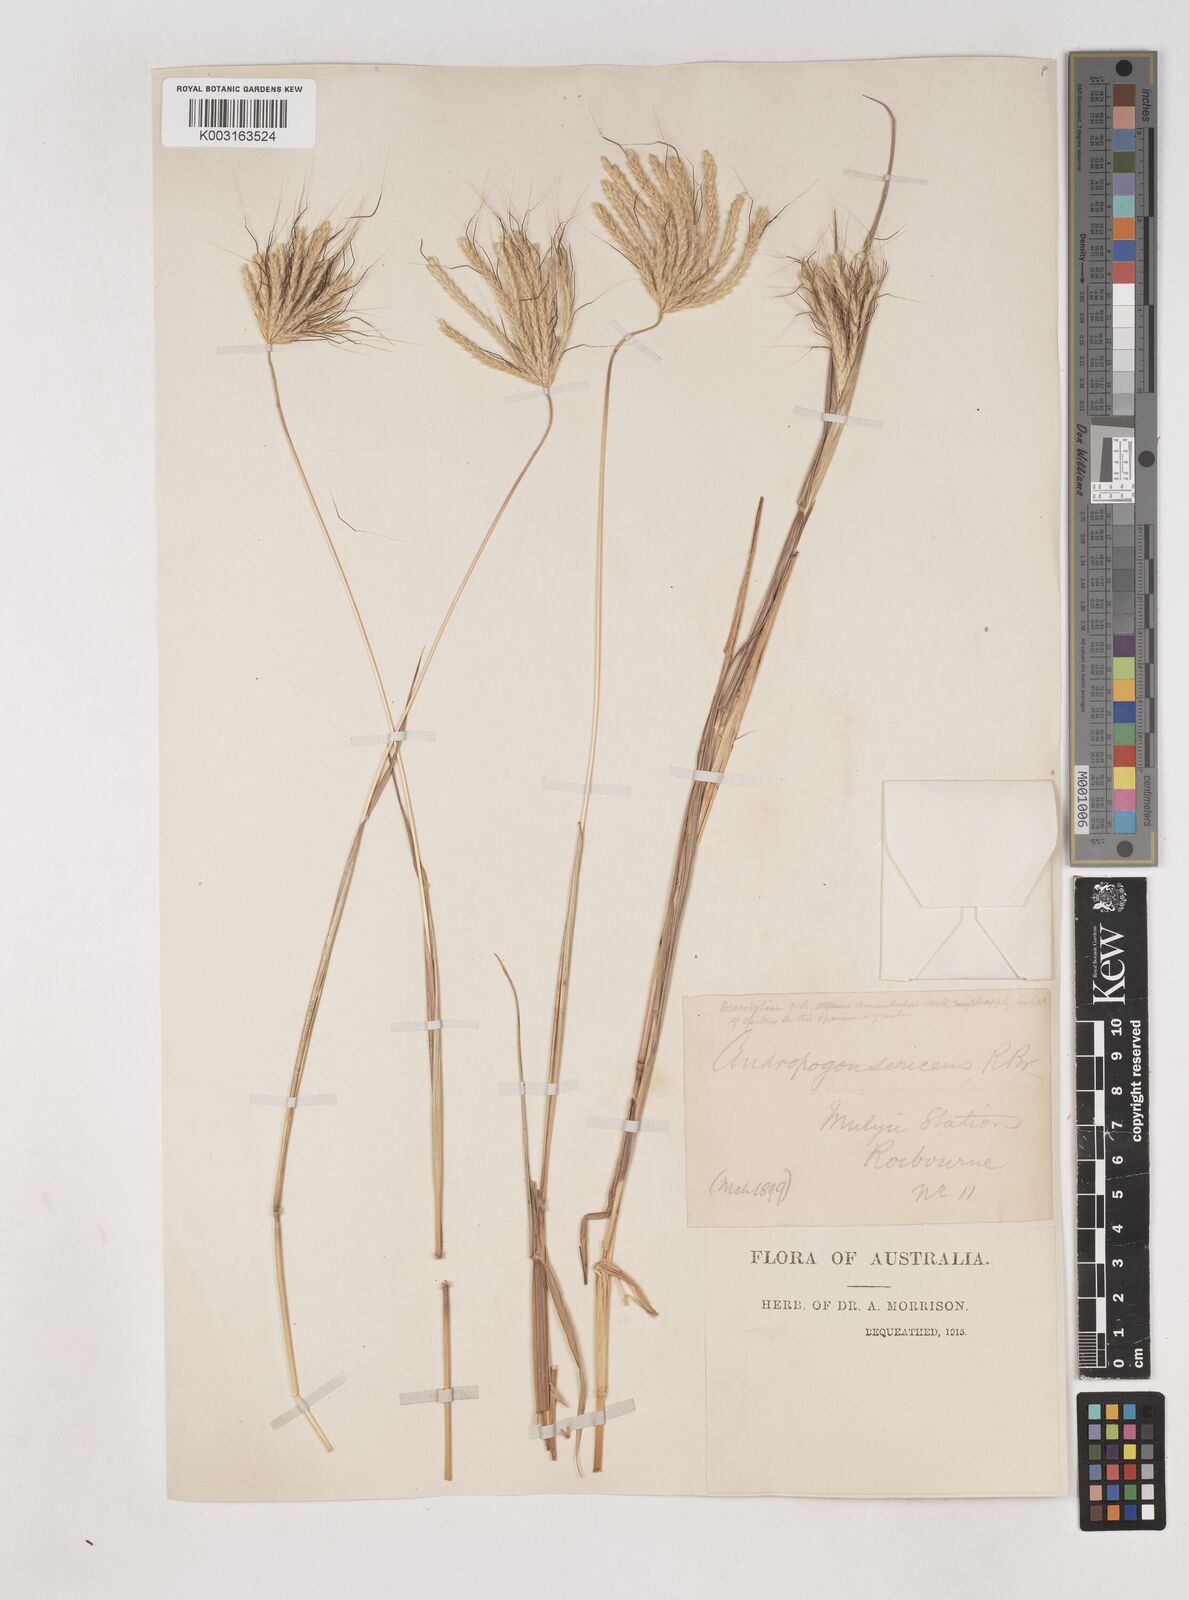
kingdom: Plantae
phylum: Tracheophyta
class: Liliopsida
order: Poales
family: Poaceae
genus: Dichanthium
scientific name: Dichanthium sericeum
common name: Silky bluestem
